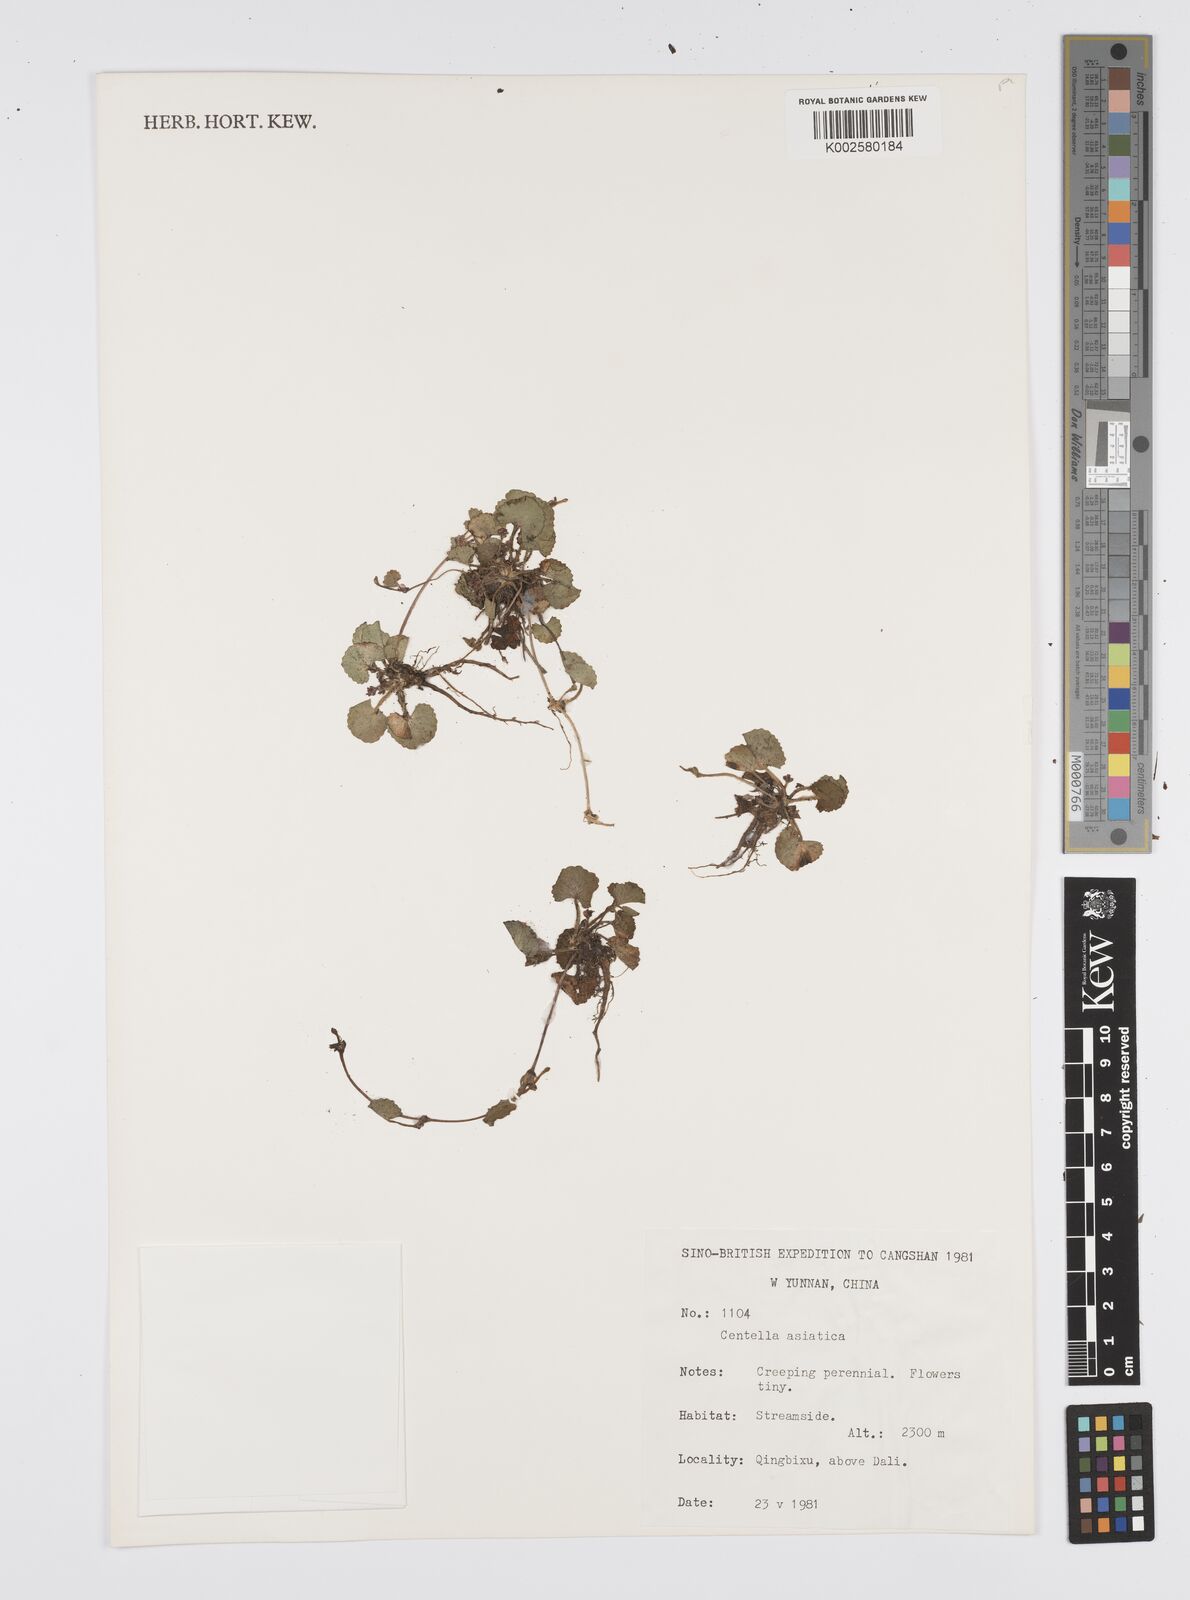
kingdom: Plantae
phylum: Tracheophyta
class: Magnoliopsida
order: Apiales
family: Apiaceae
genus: Centella
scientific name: Centella
